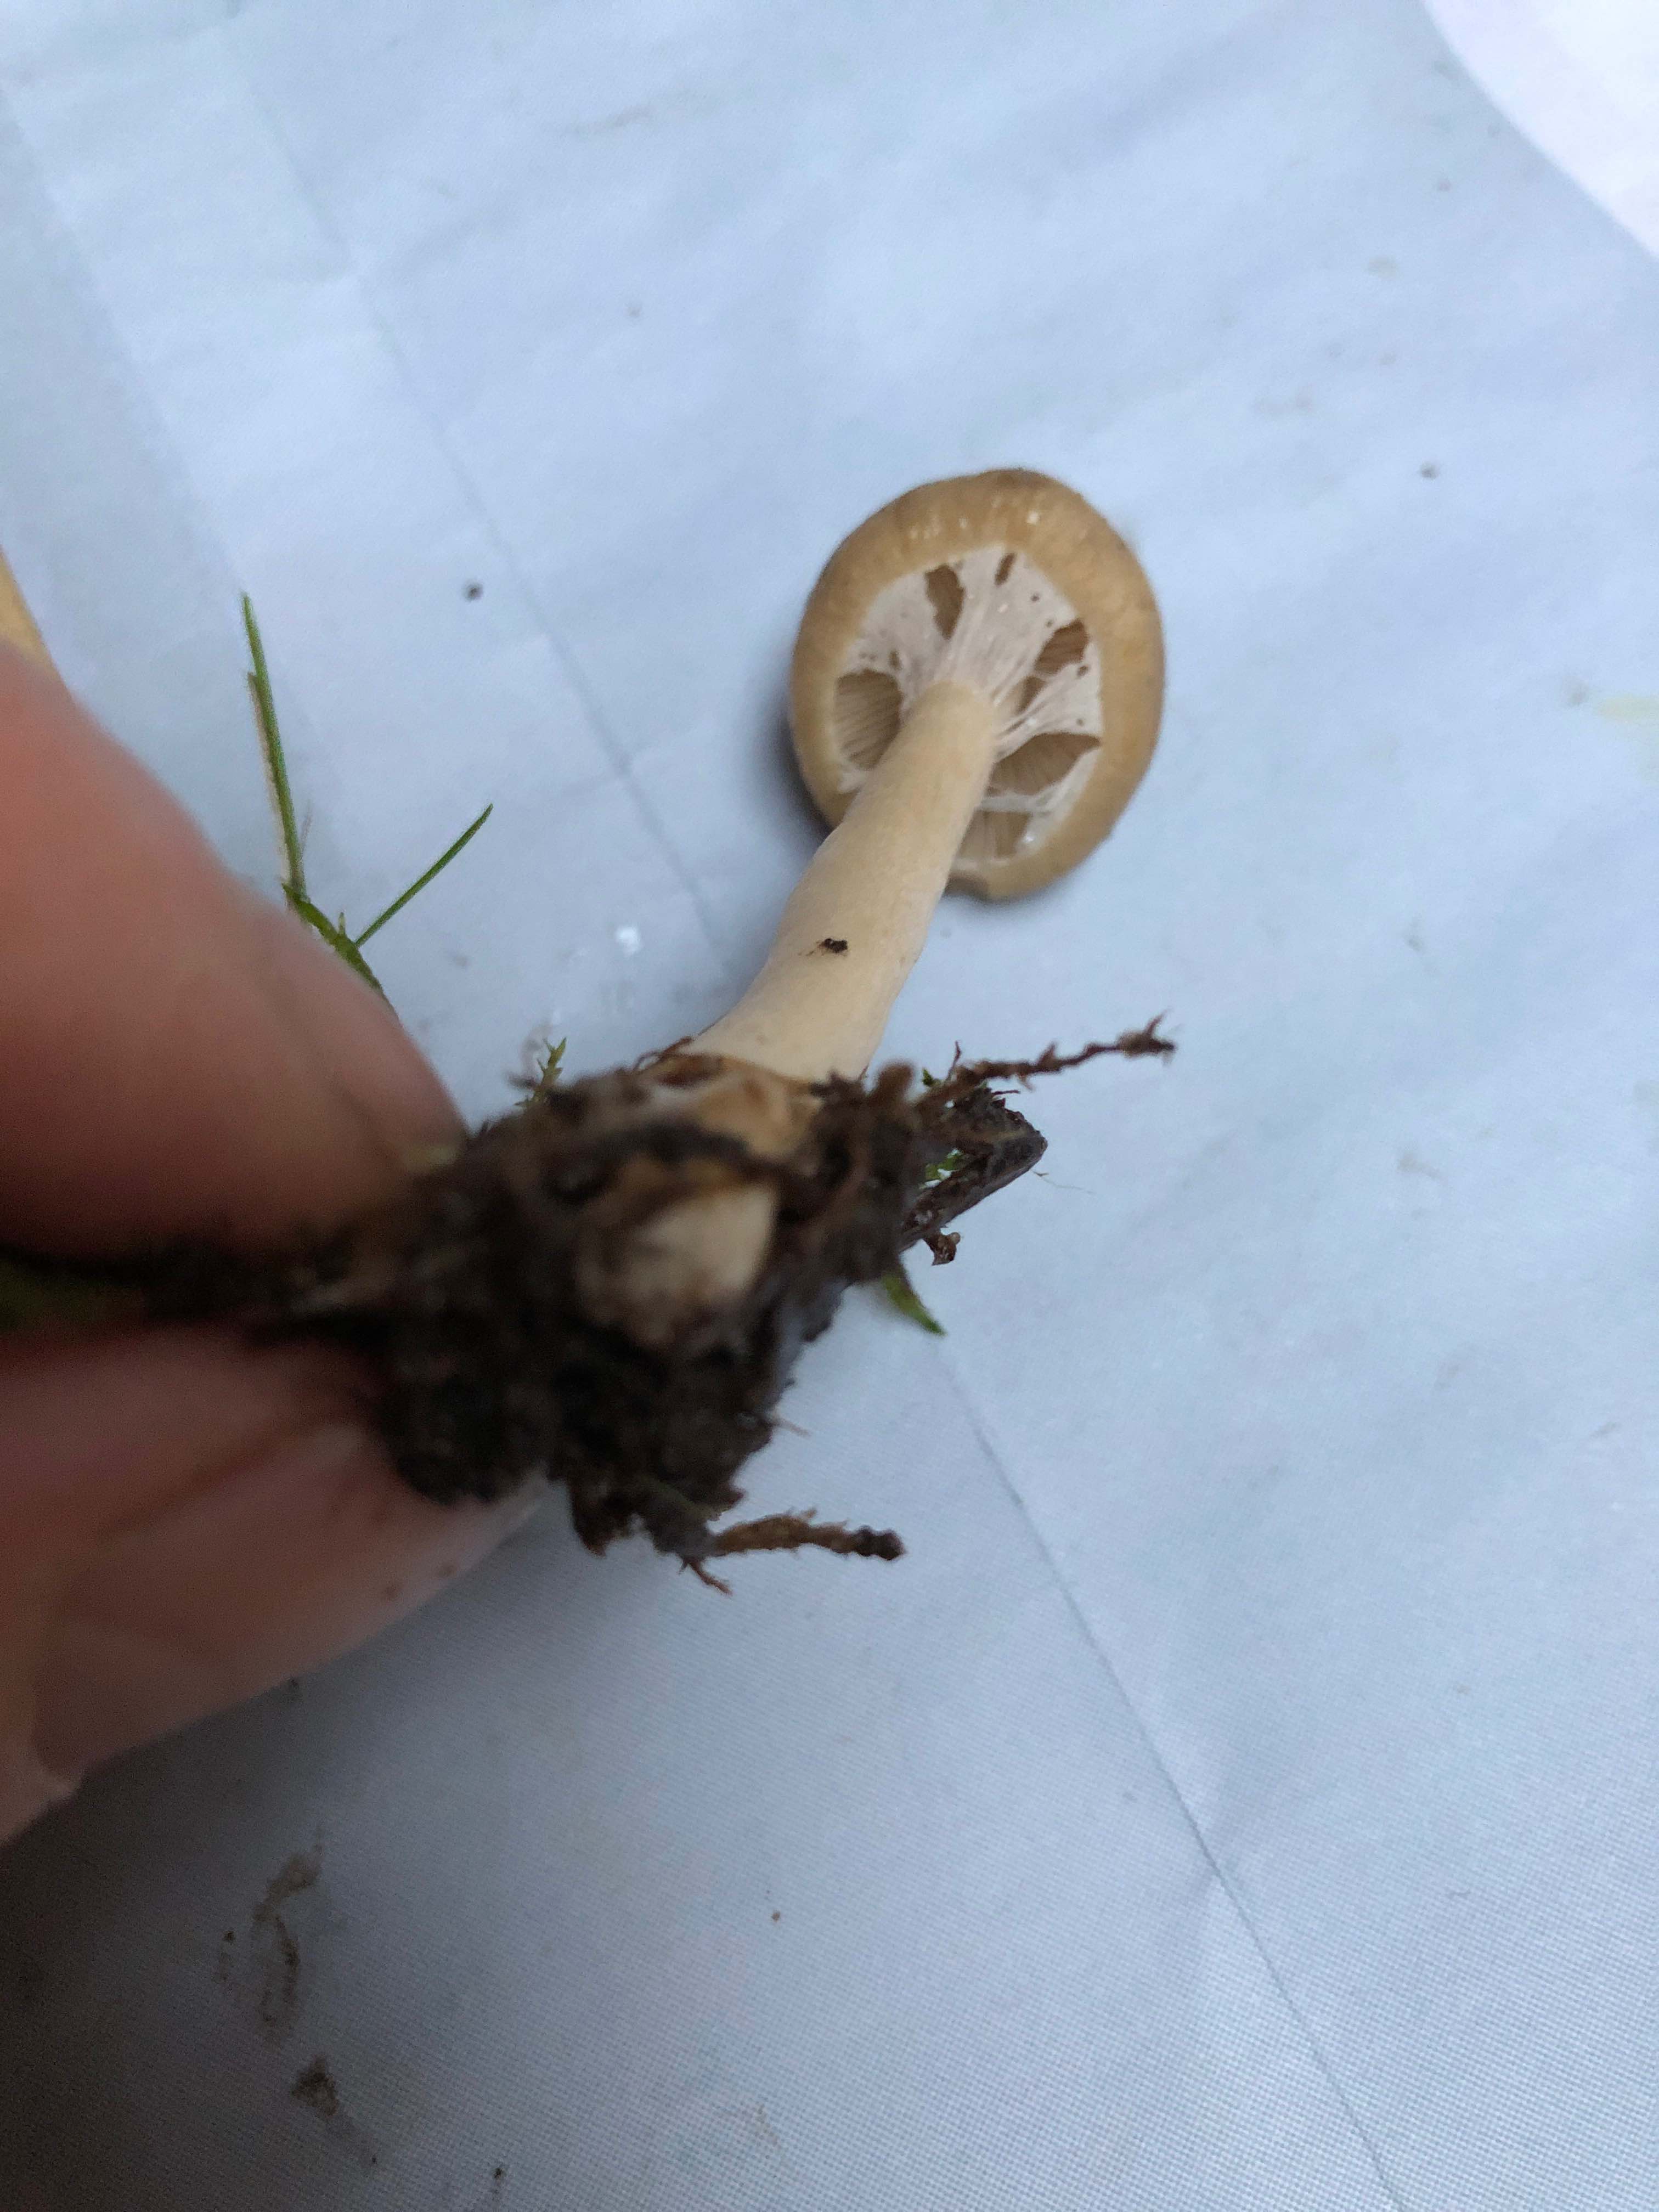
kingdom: Fungi
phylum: Basidiomycota
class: Agaricomycetes
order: Agaricales
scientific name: Agaricales
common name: champignonordenen
